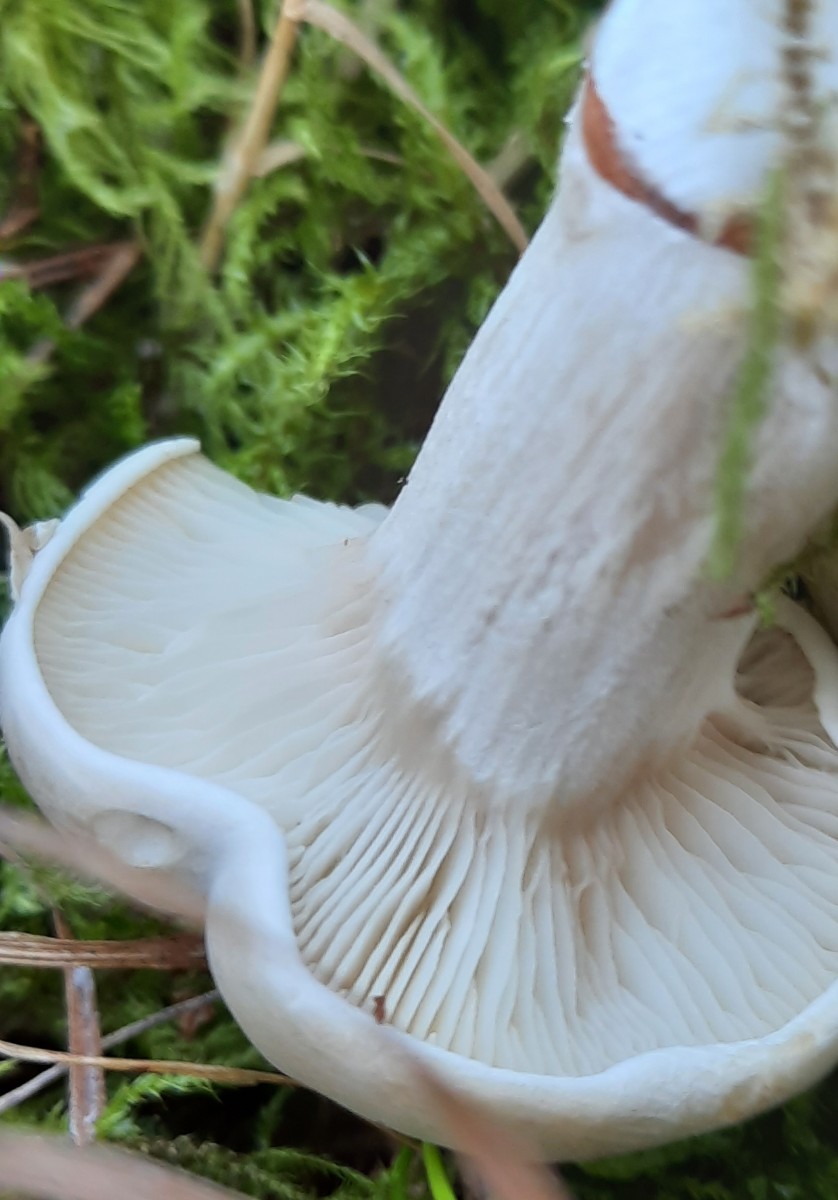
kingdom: Fungi
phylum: Basidiomycota
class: Agaricomycetes
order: Agaricales
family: Entolomataceae
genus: Clitopilus
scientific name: Clitopilus prunulus
